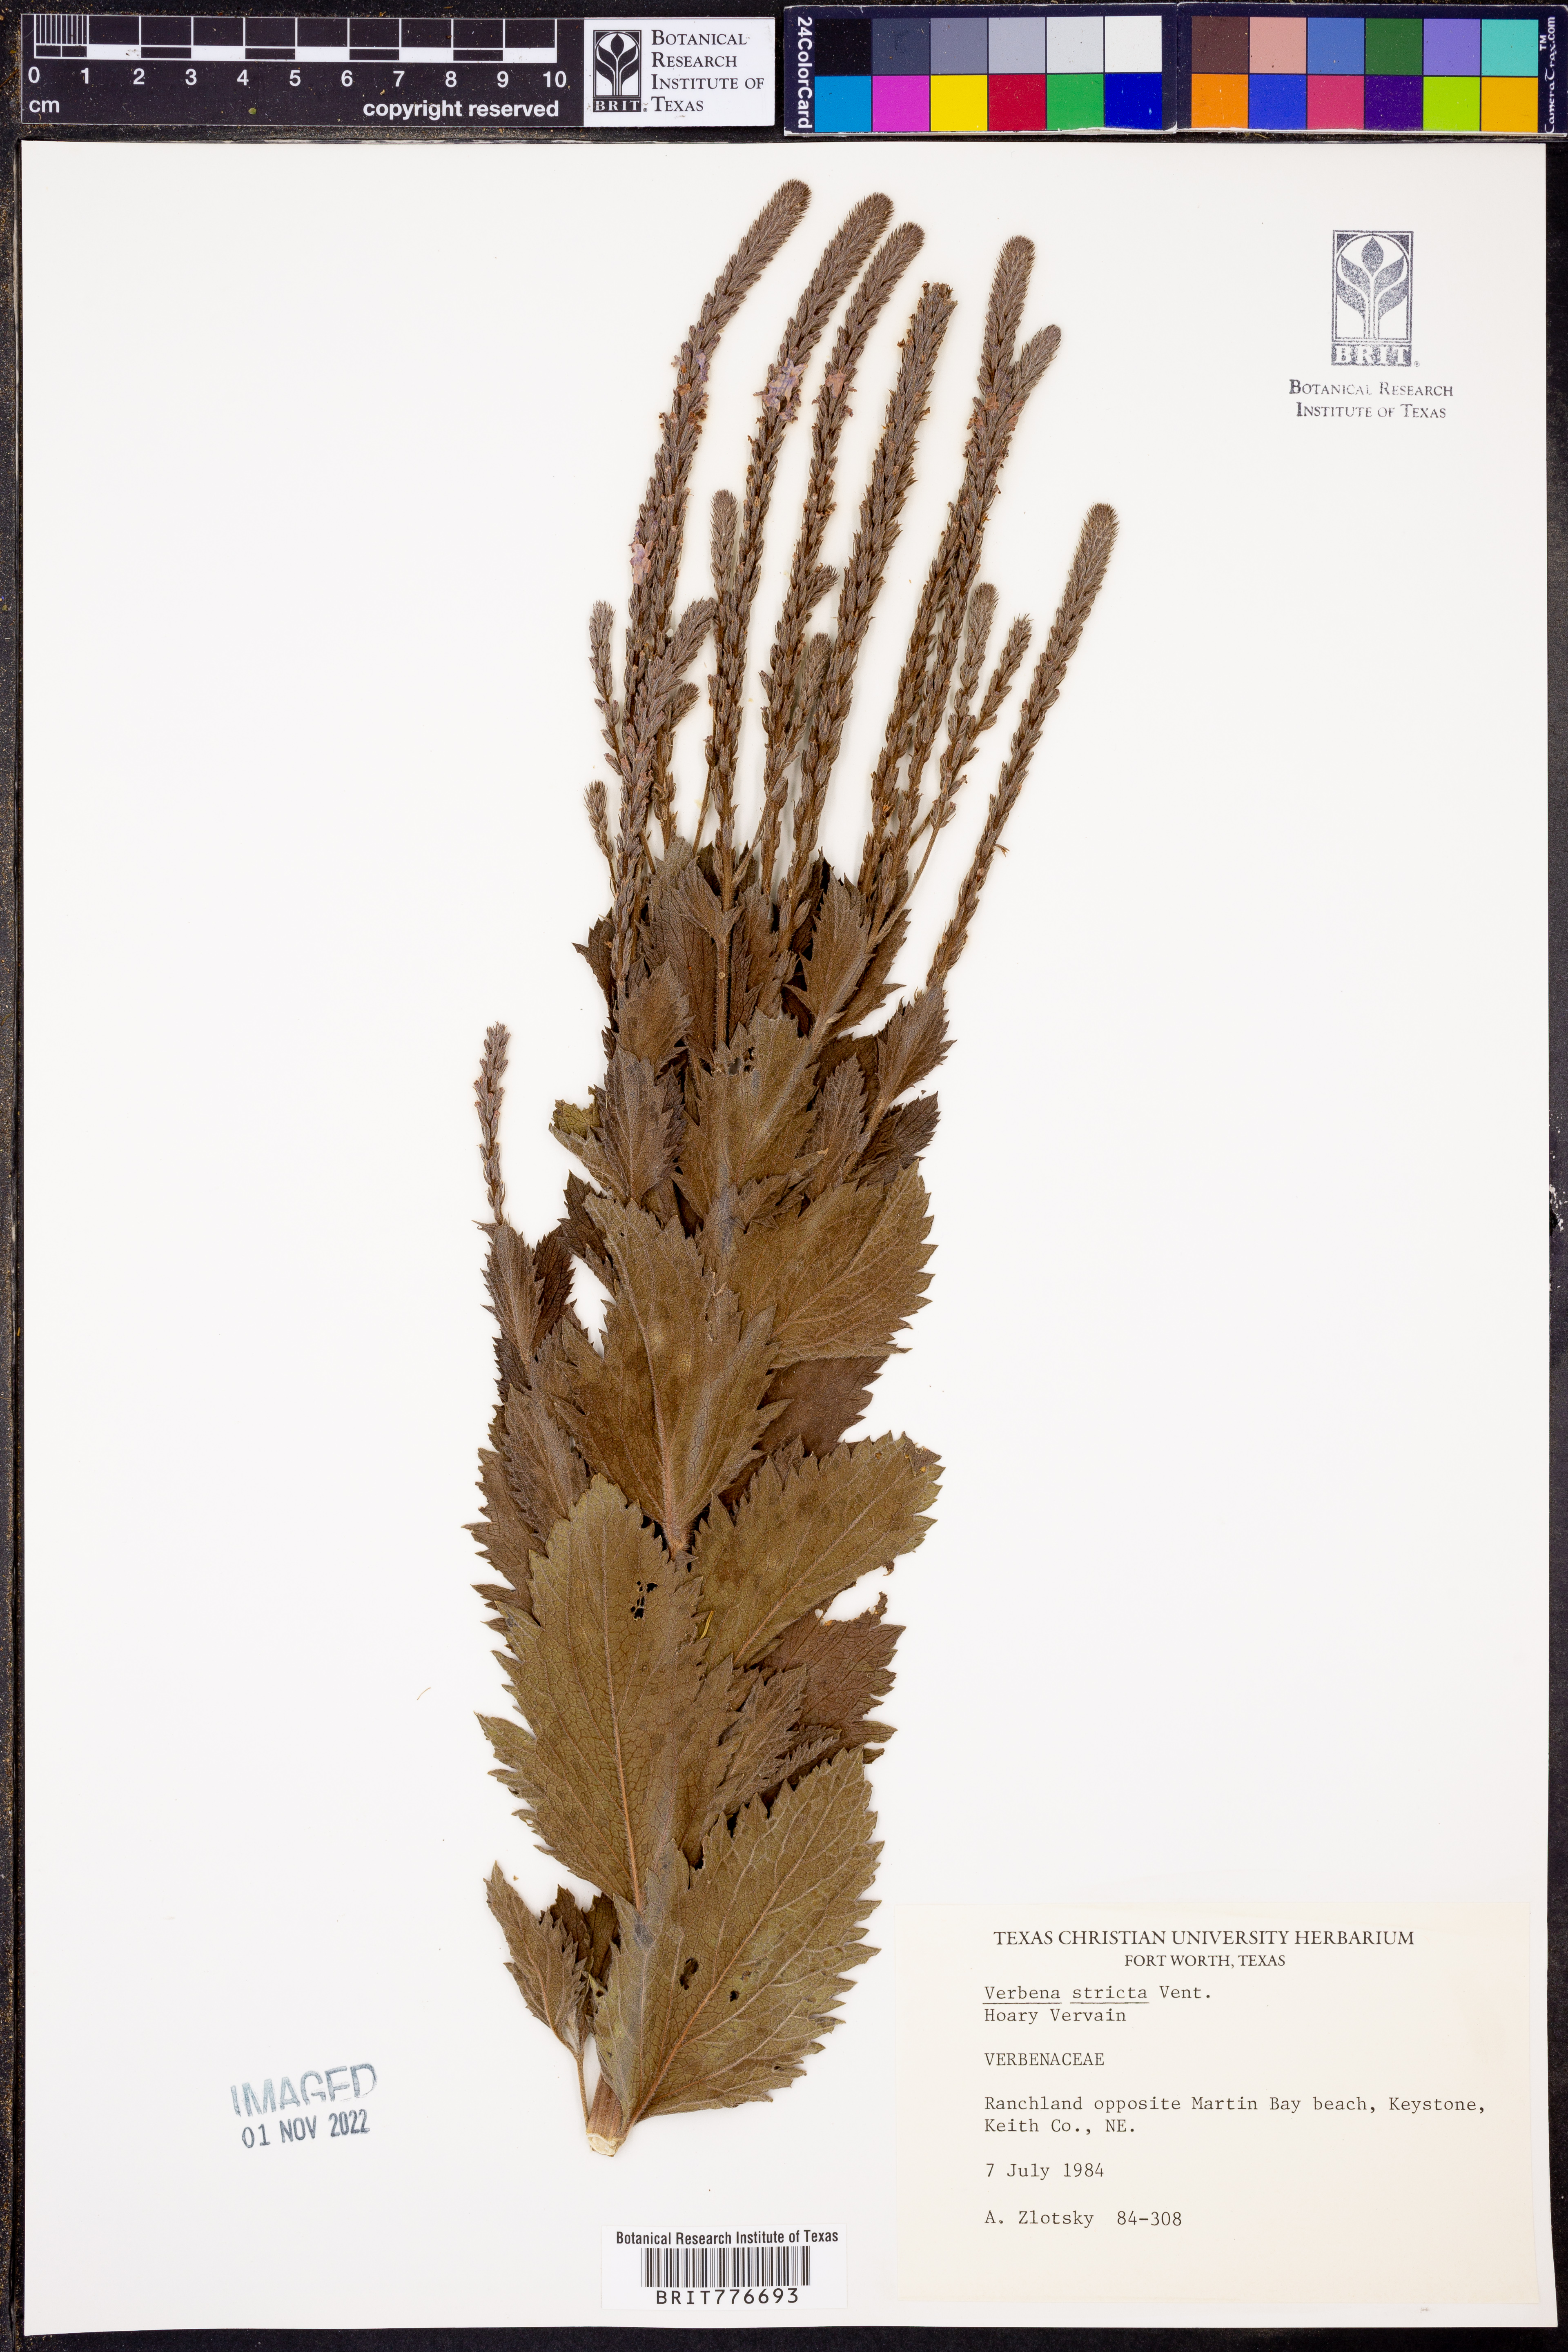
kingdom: Plantae
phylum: Tracheophyta
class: Magnoliopsida
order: Lamiales
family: Verbenaceae
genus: Verbena
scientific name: Verbena stricta
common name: Hoary vervain
